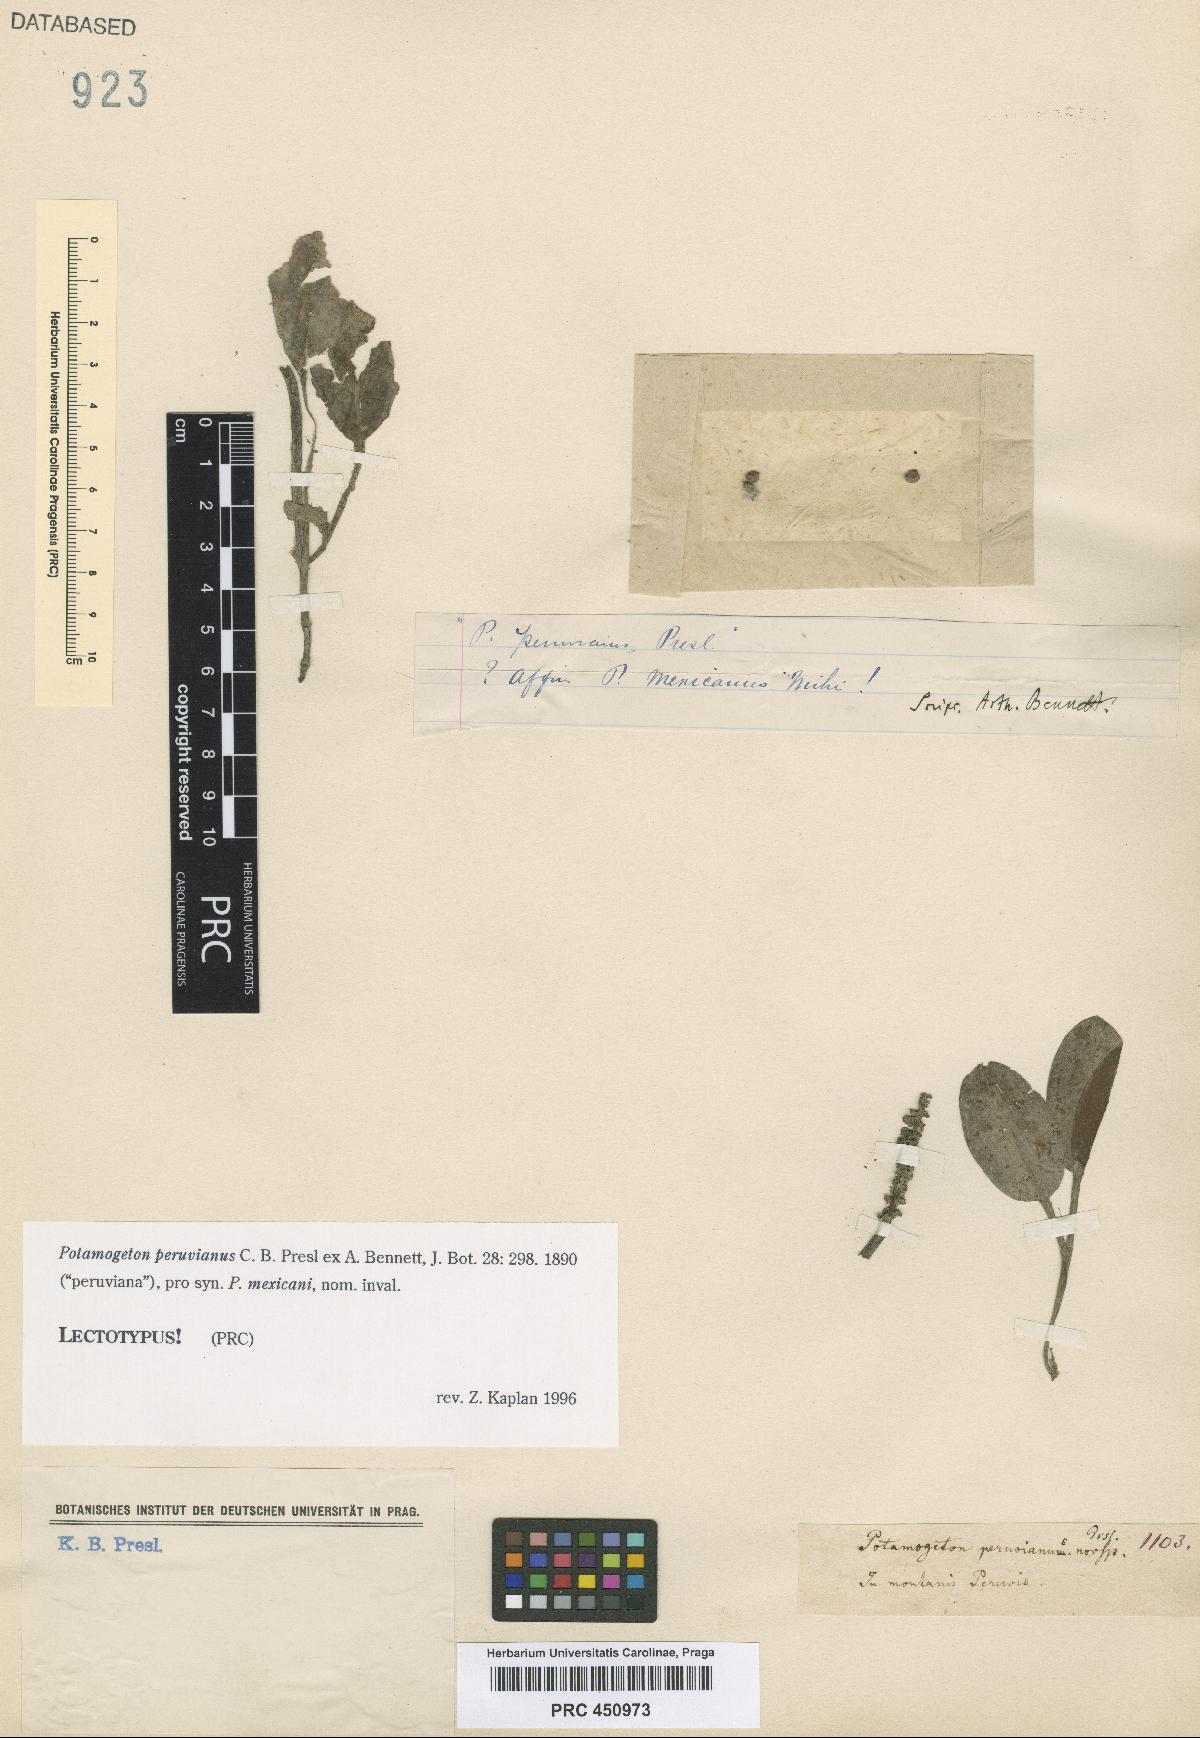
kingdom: Plantae
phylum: Tracheophyta
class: Liliopsida
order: Alismatales
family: Potamogetonaceae
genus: Potamogeton
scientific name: Potamogeton nodosus
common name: Loddon pondweed
